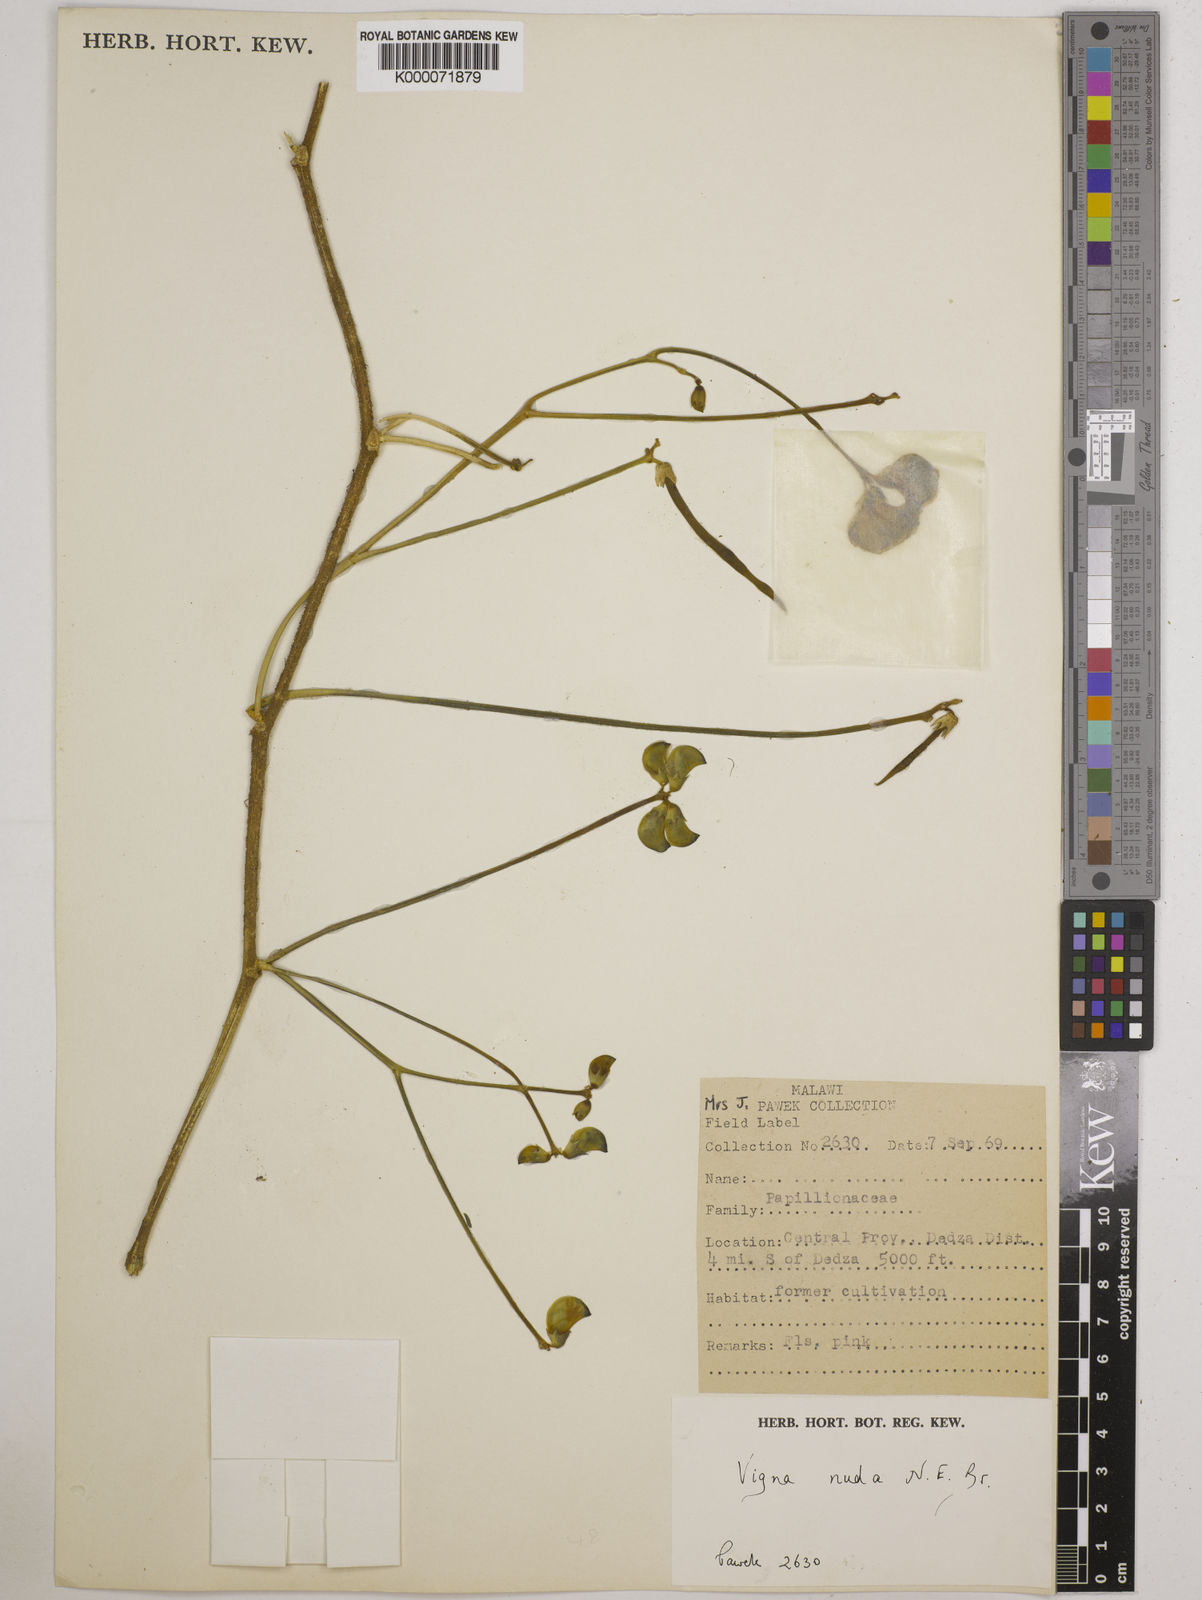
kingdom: Plantae
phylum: Tracheophyta
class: Magnoliopsida
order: Fabales
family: Fabaceae
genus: Vigna
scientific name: Vigna antunesii
